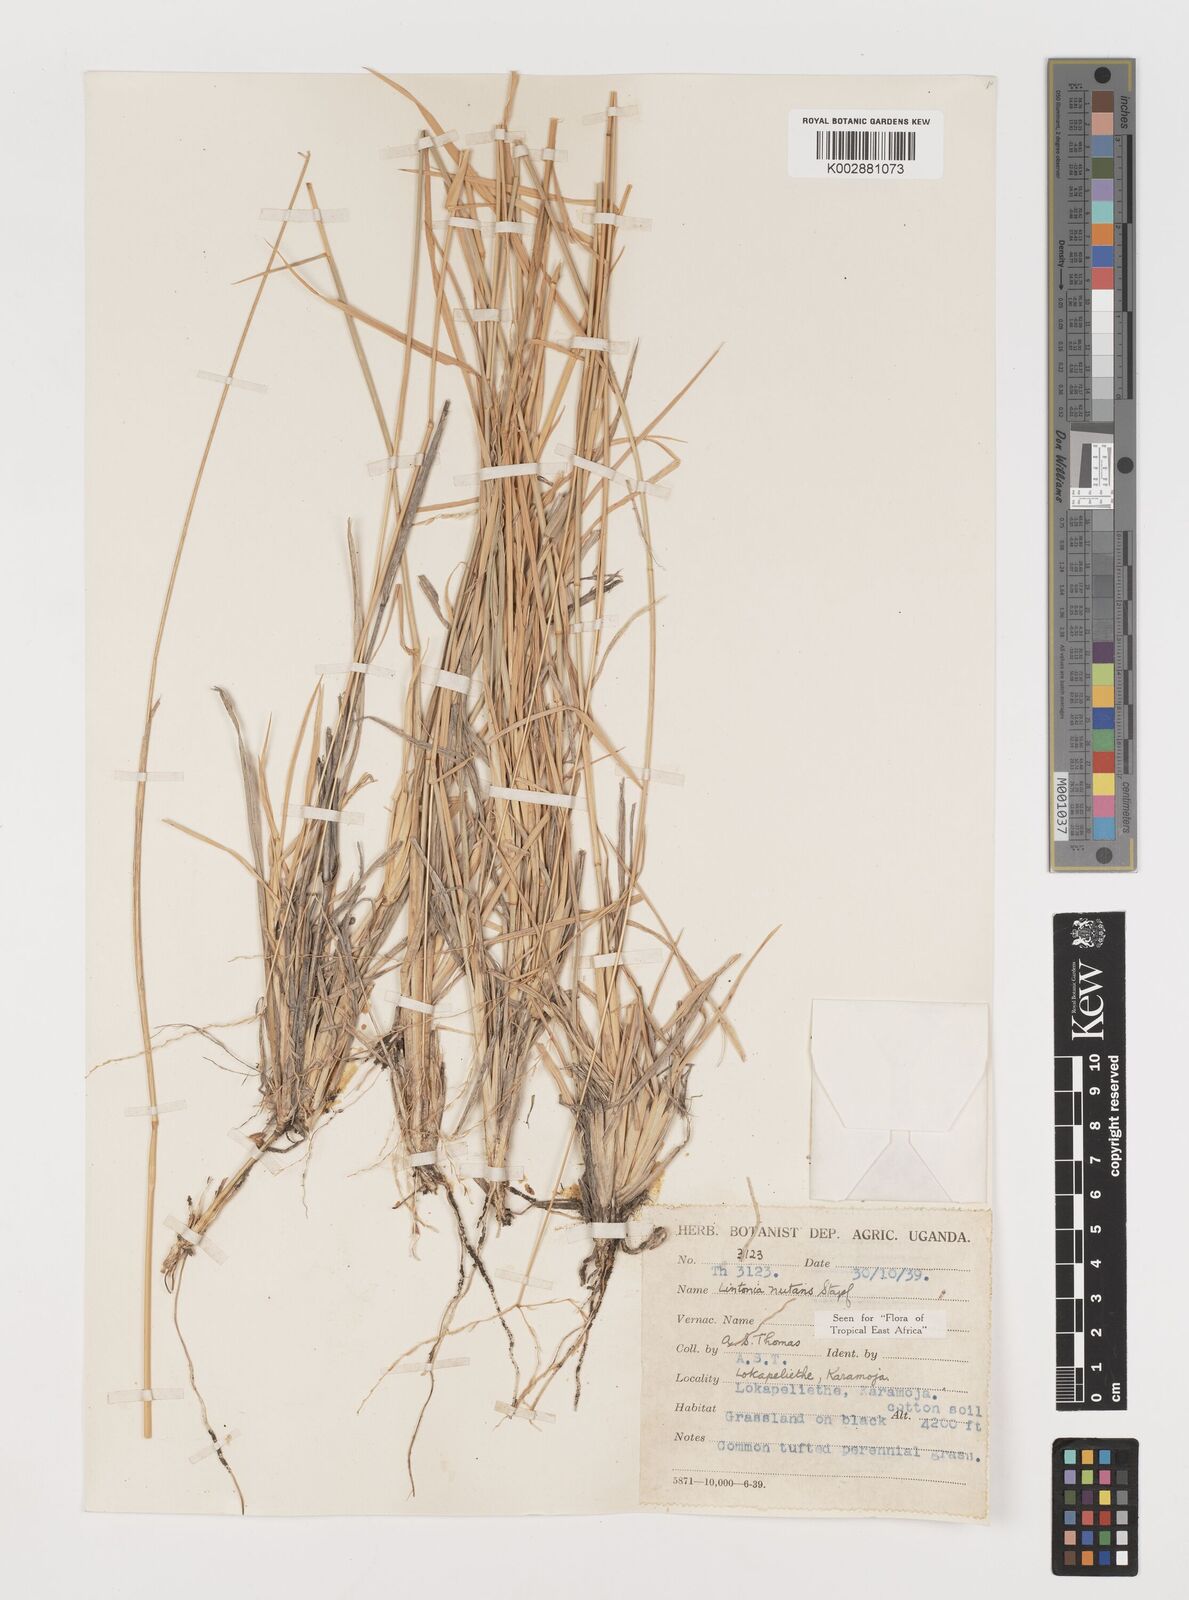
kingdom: Plantae
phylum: Tracheophyta
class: Liliopsida
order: Poales
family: Poaceae
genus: Chloris
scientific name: Chloris nutans
